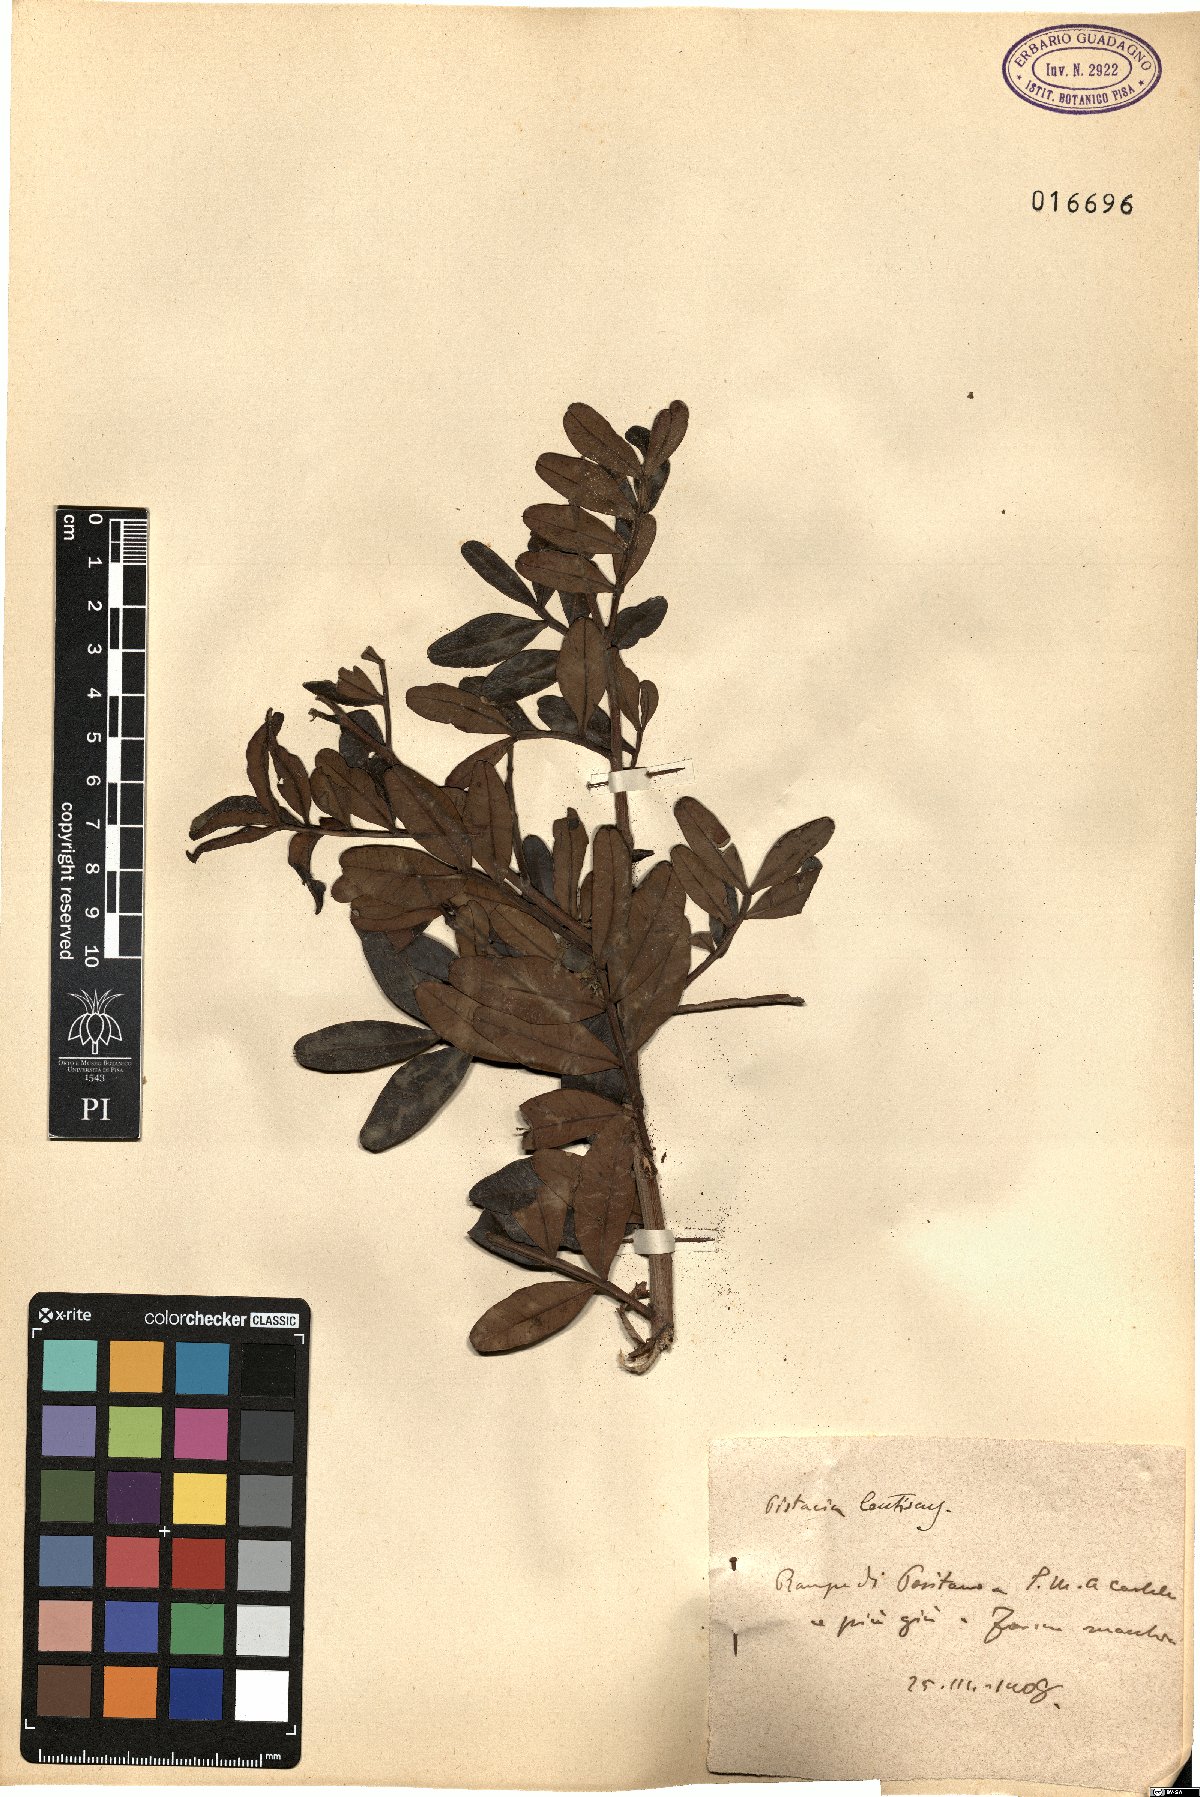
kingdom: Plantae
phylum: Tracheophyta
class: Magnoliopsida
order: Sapindales
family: Anacardiaceae
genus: Pistacia
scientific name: Pistacia lentiscus
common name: Lentisk
